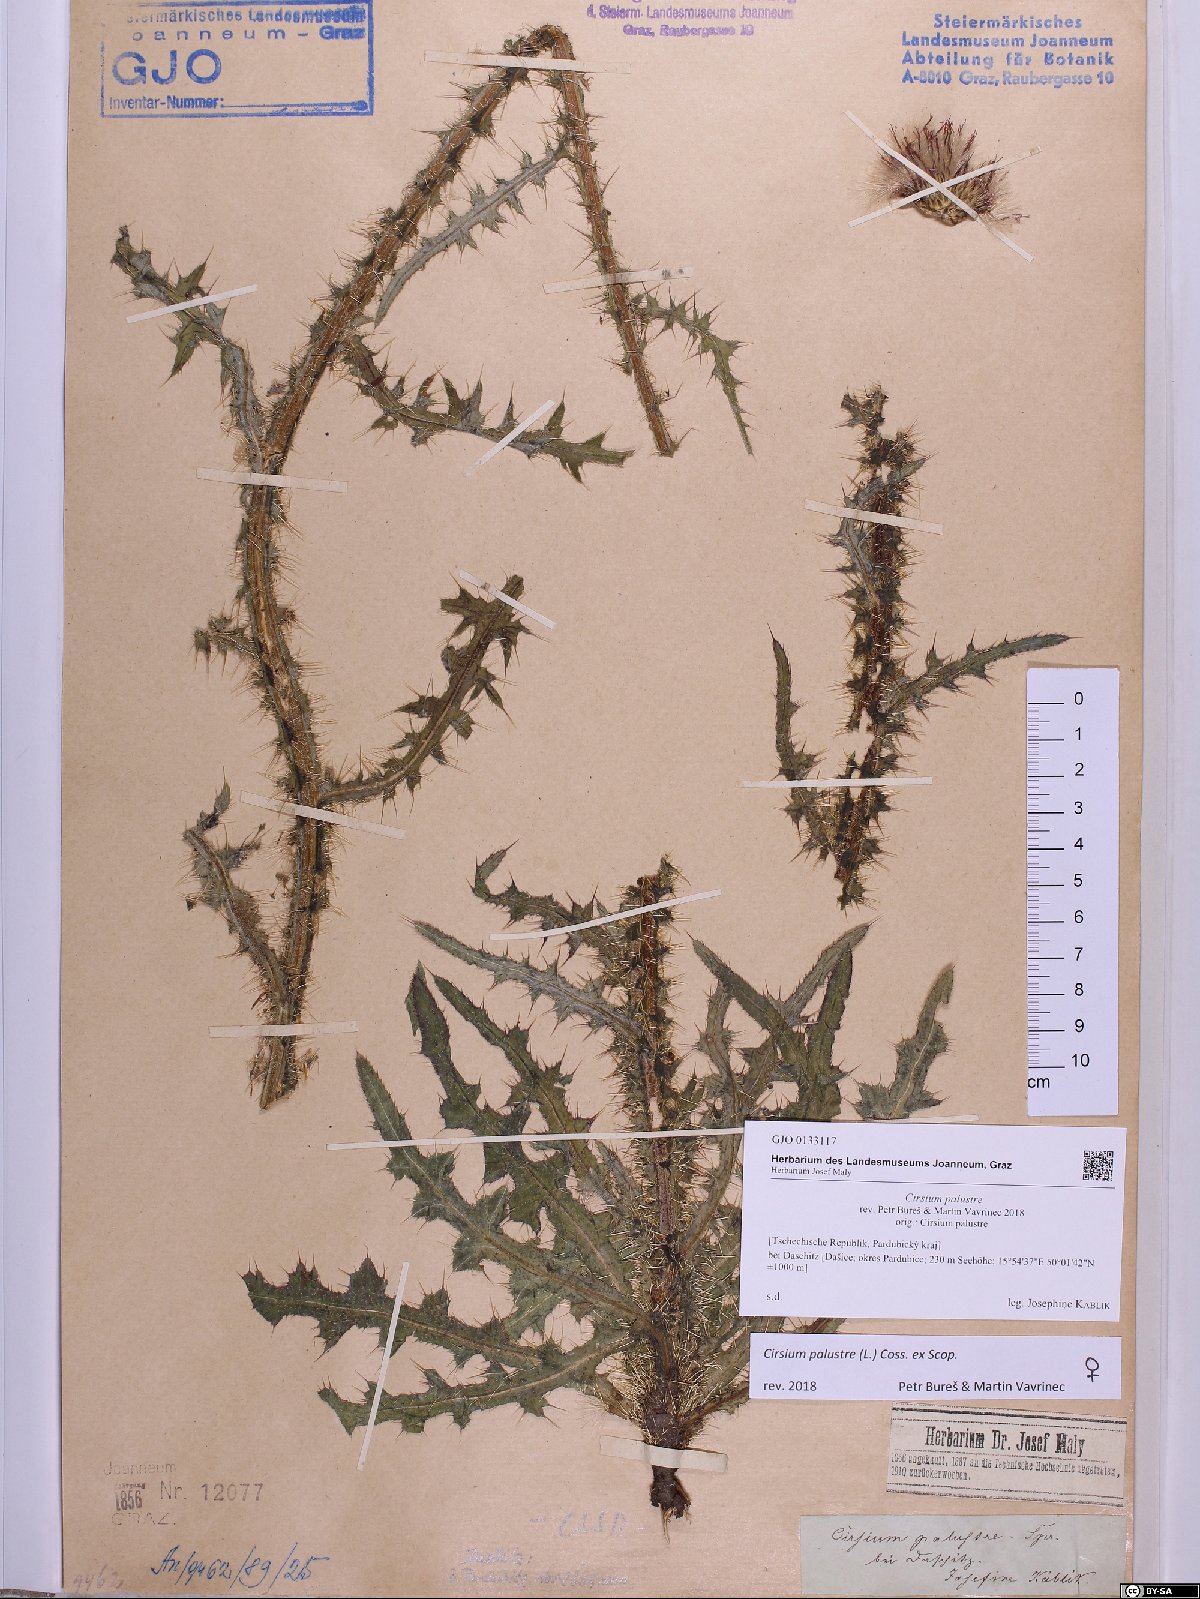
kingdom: Plantae
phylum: Tracheophyta
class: Magnoliopsida
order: Asterales
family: Asteraceae
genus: Cirsium
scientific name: Cirsium palustre
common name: Marsh thistle
